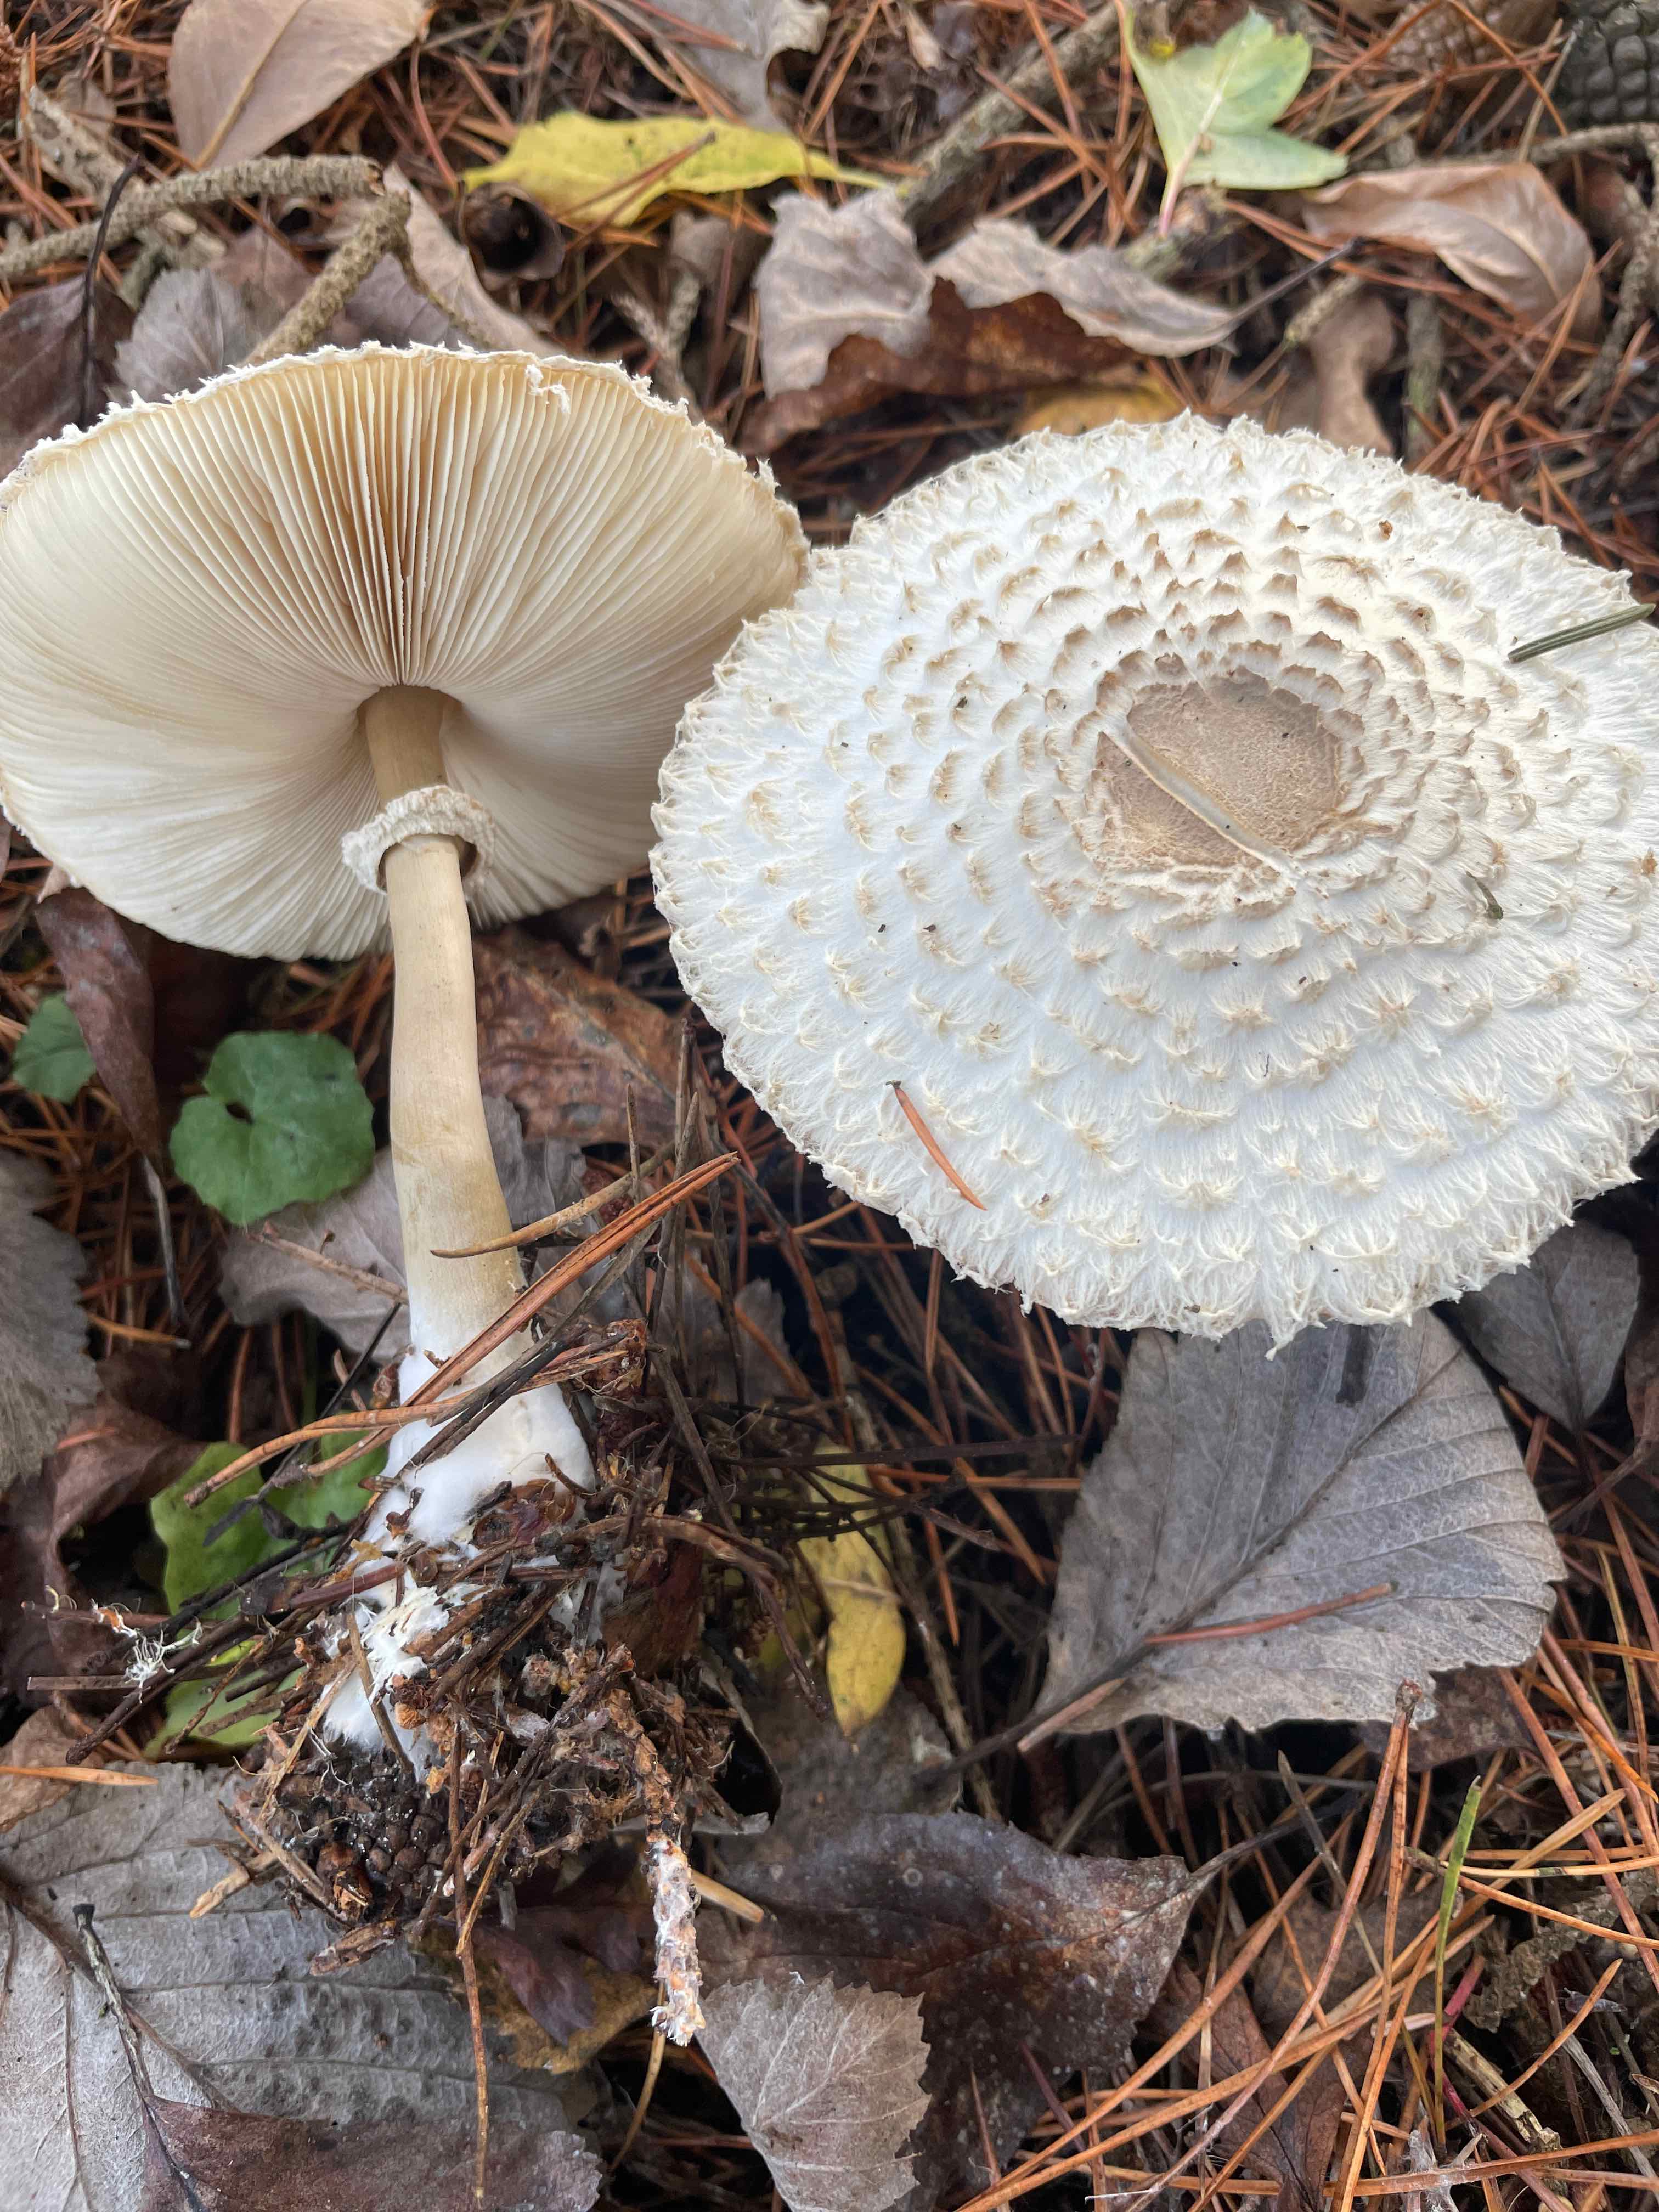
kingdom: Fungi
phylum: Basidiomycota
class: Agaricomycetes
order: Agaricales
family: Agaricaceae
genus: Leucoagaricus
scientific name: Leucoagaricus nympharum
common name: gran-silkehat
